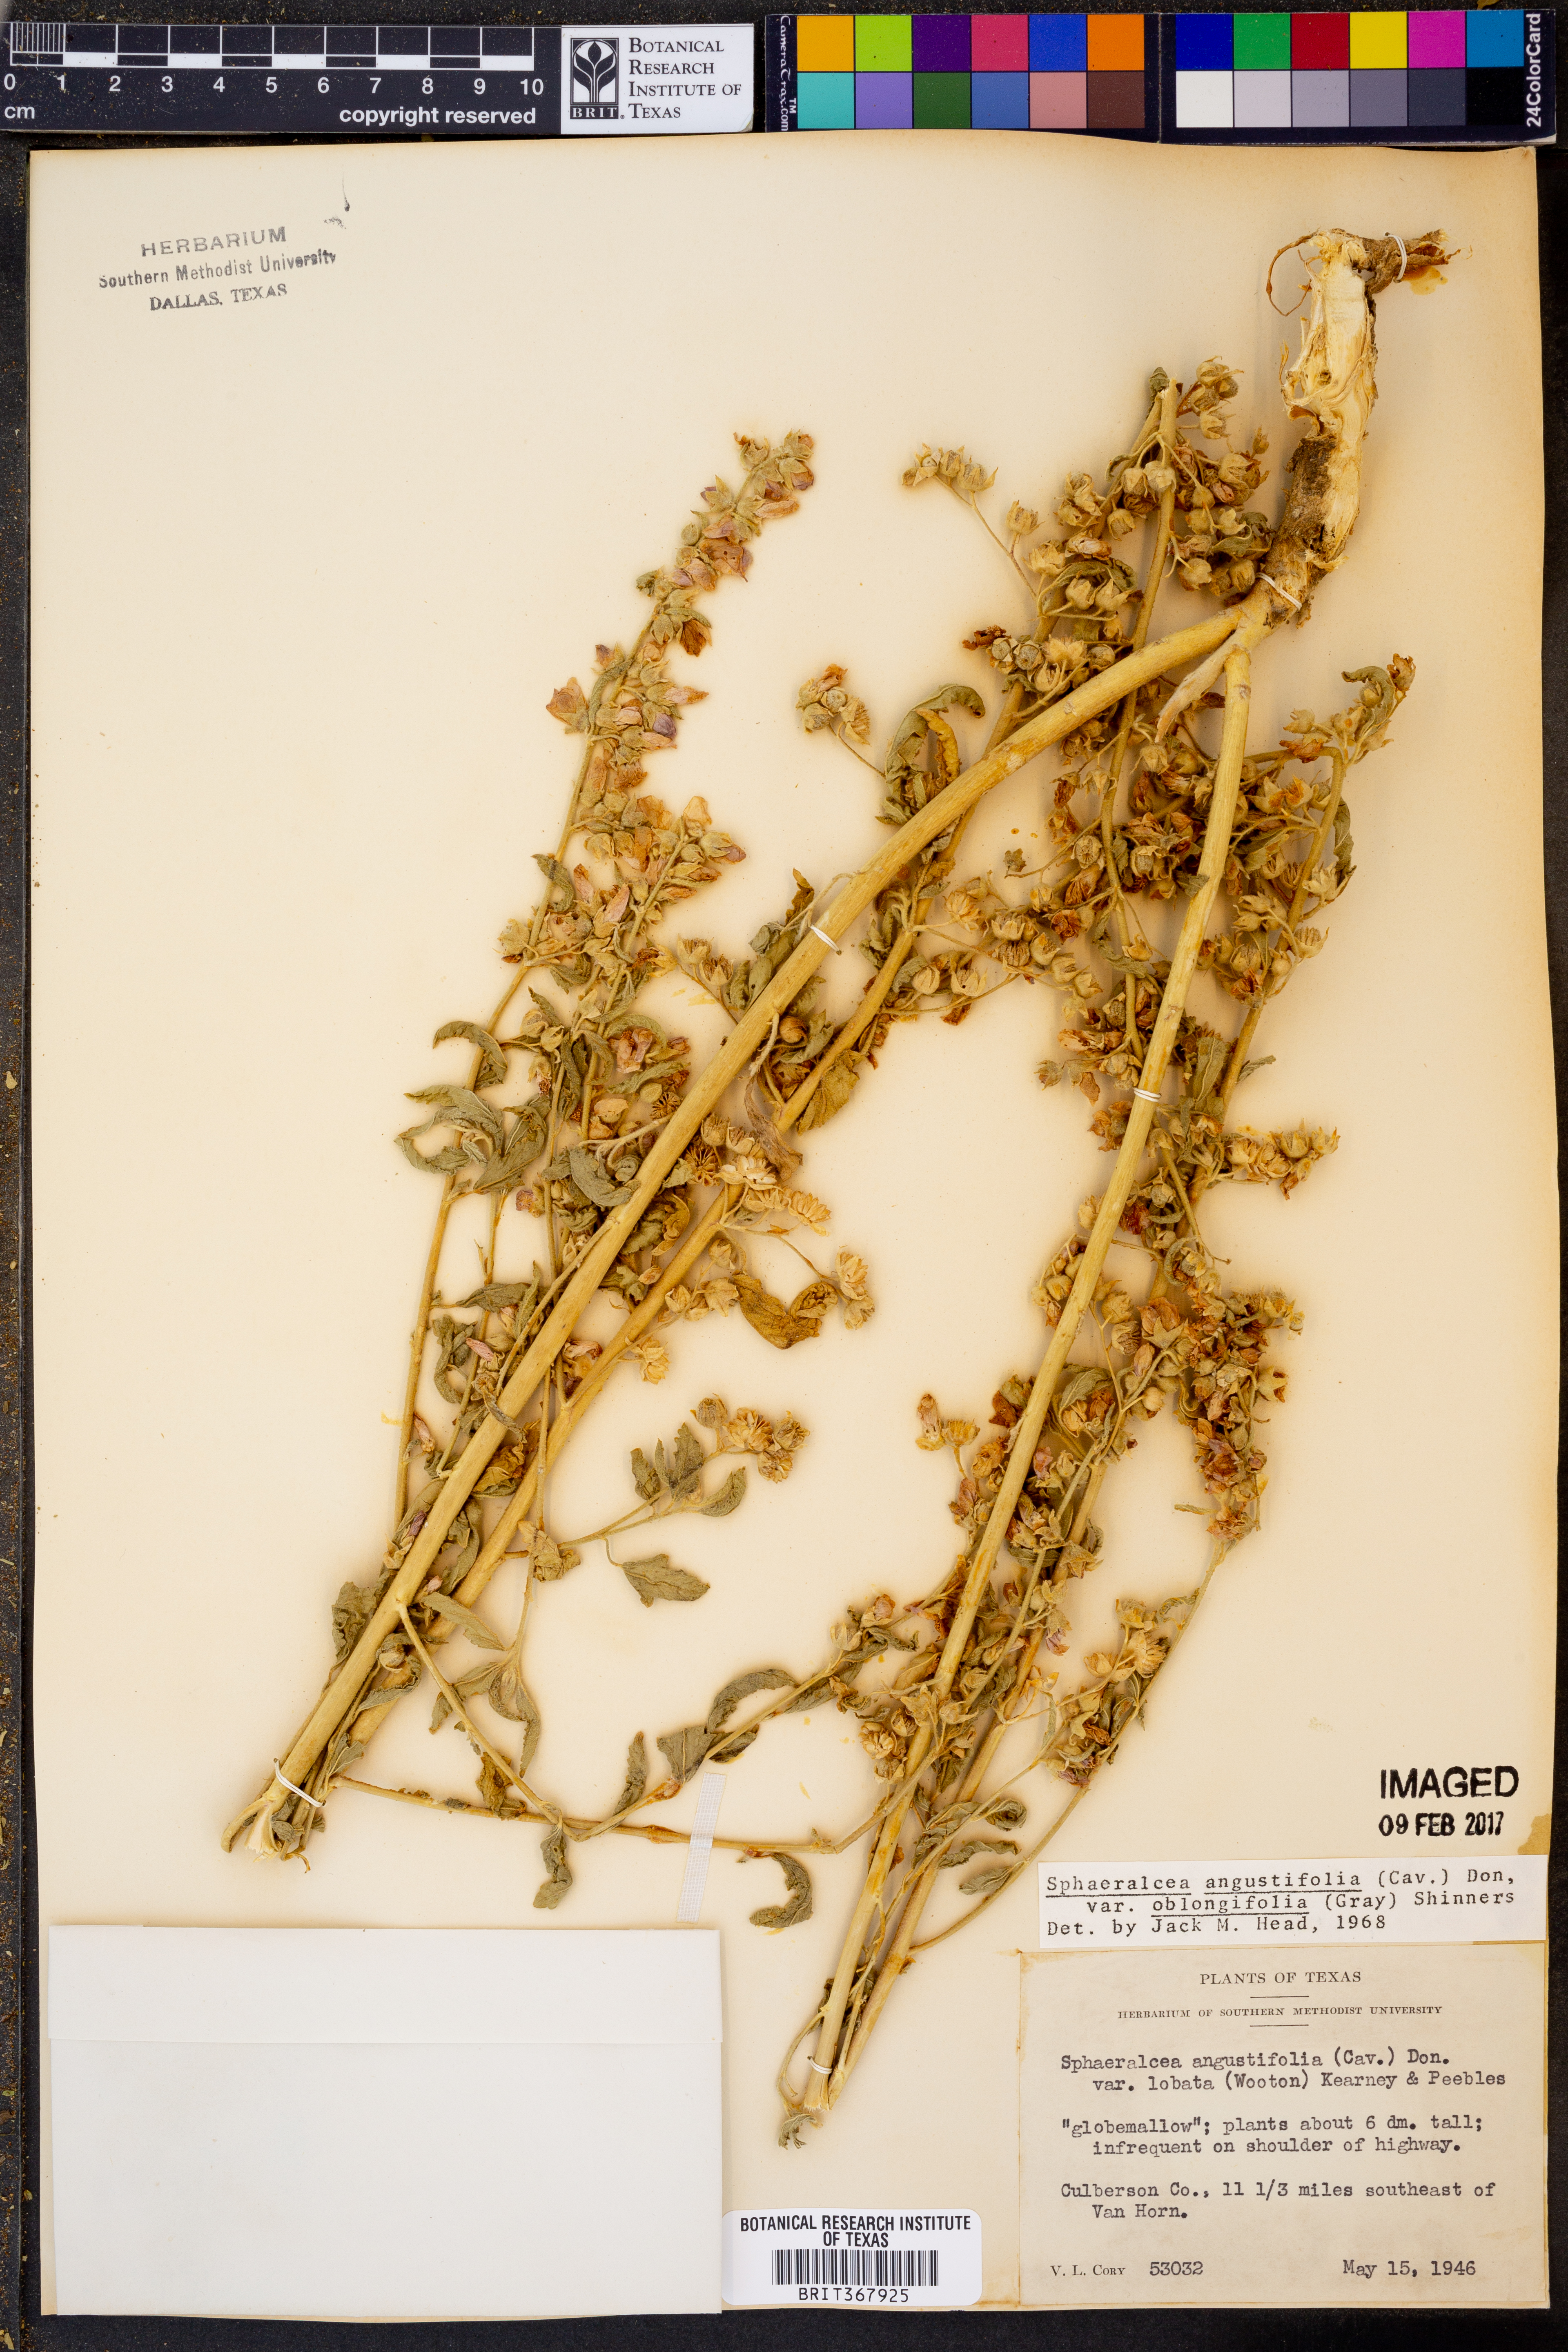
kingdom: Plantae
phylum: Tracheophyta
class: Magnoliopsida
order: Malvales
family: Malvaceae
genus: Sphaeralcea
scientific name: Sphaeralcea angustifolia
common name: Copper globe-mallow
